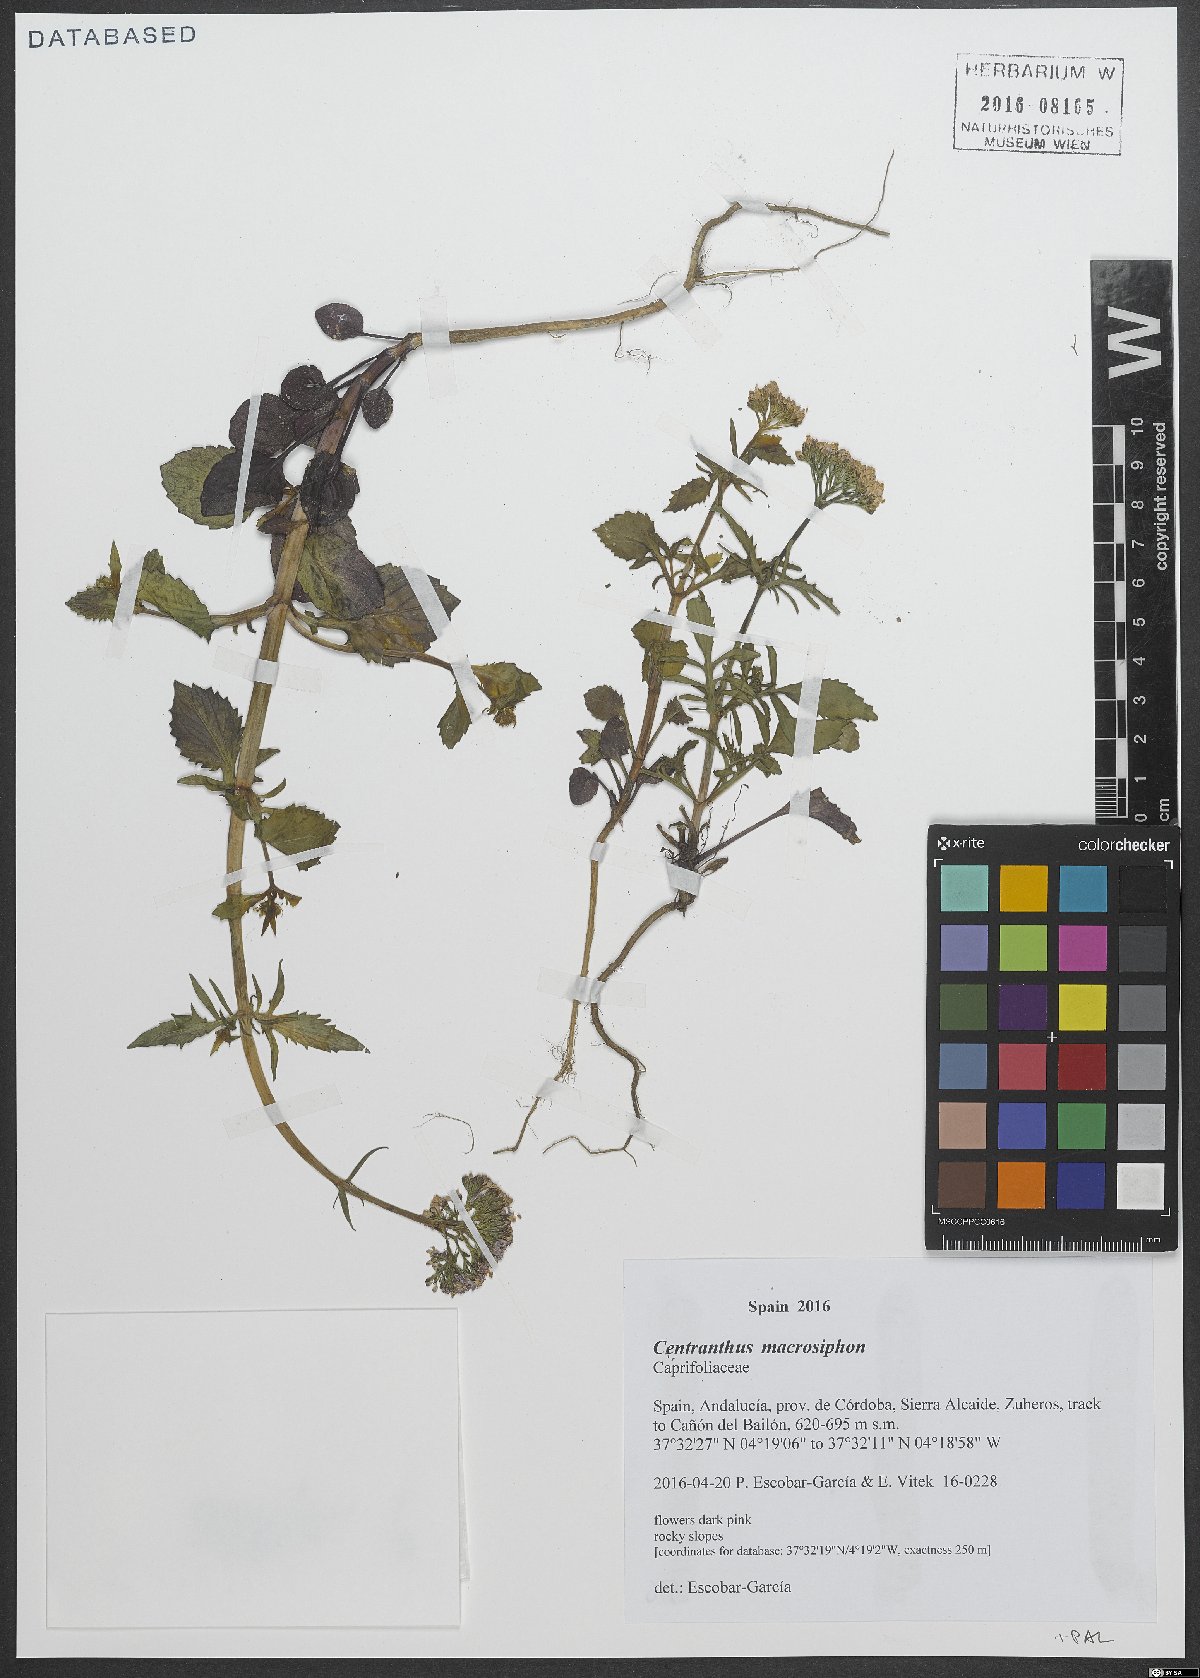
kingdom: Plantae
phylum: Tracheophyta
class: Magnoliopsida
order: Dipsacales
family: Caprifoliaceae
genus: Centranthus
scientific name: Centranthus macrosiphon
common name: Spanish-valerian
